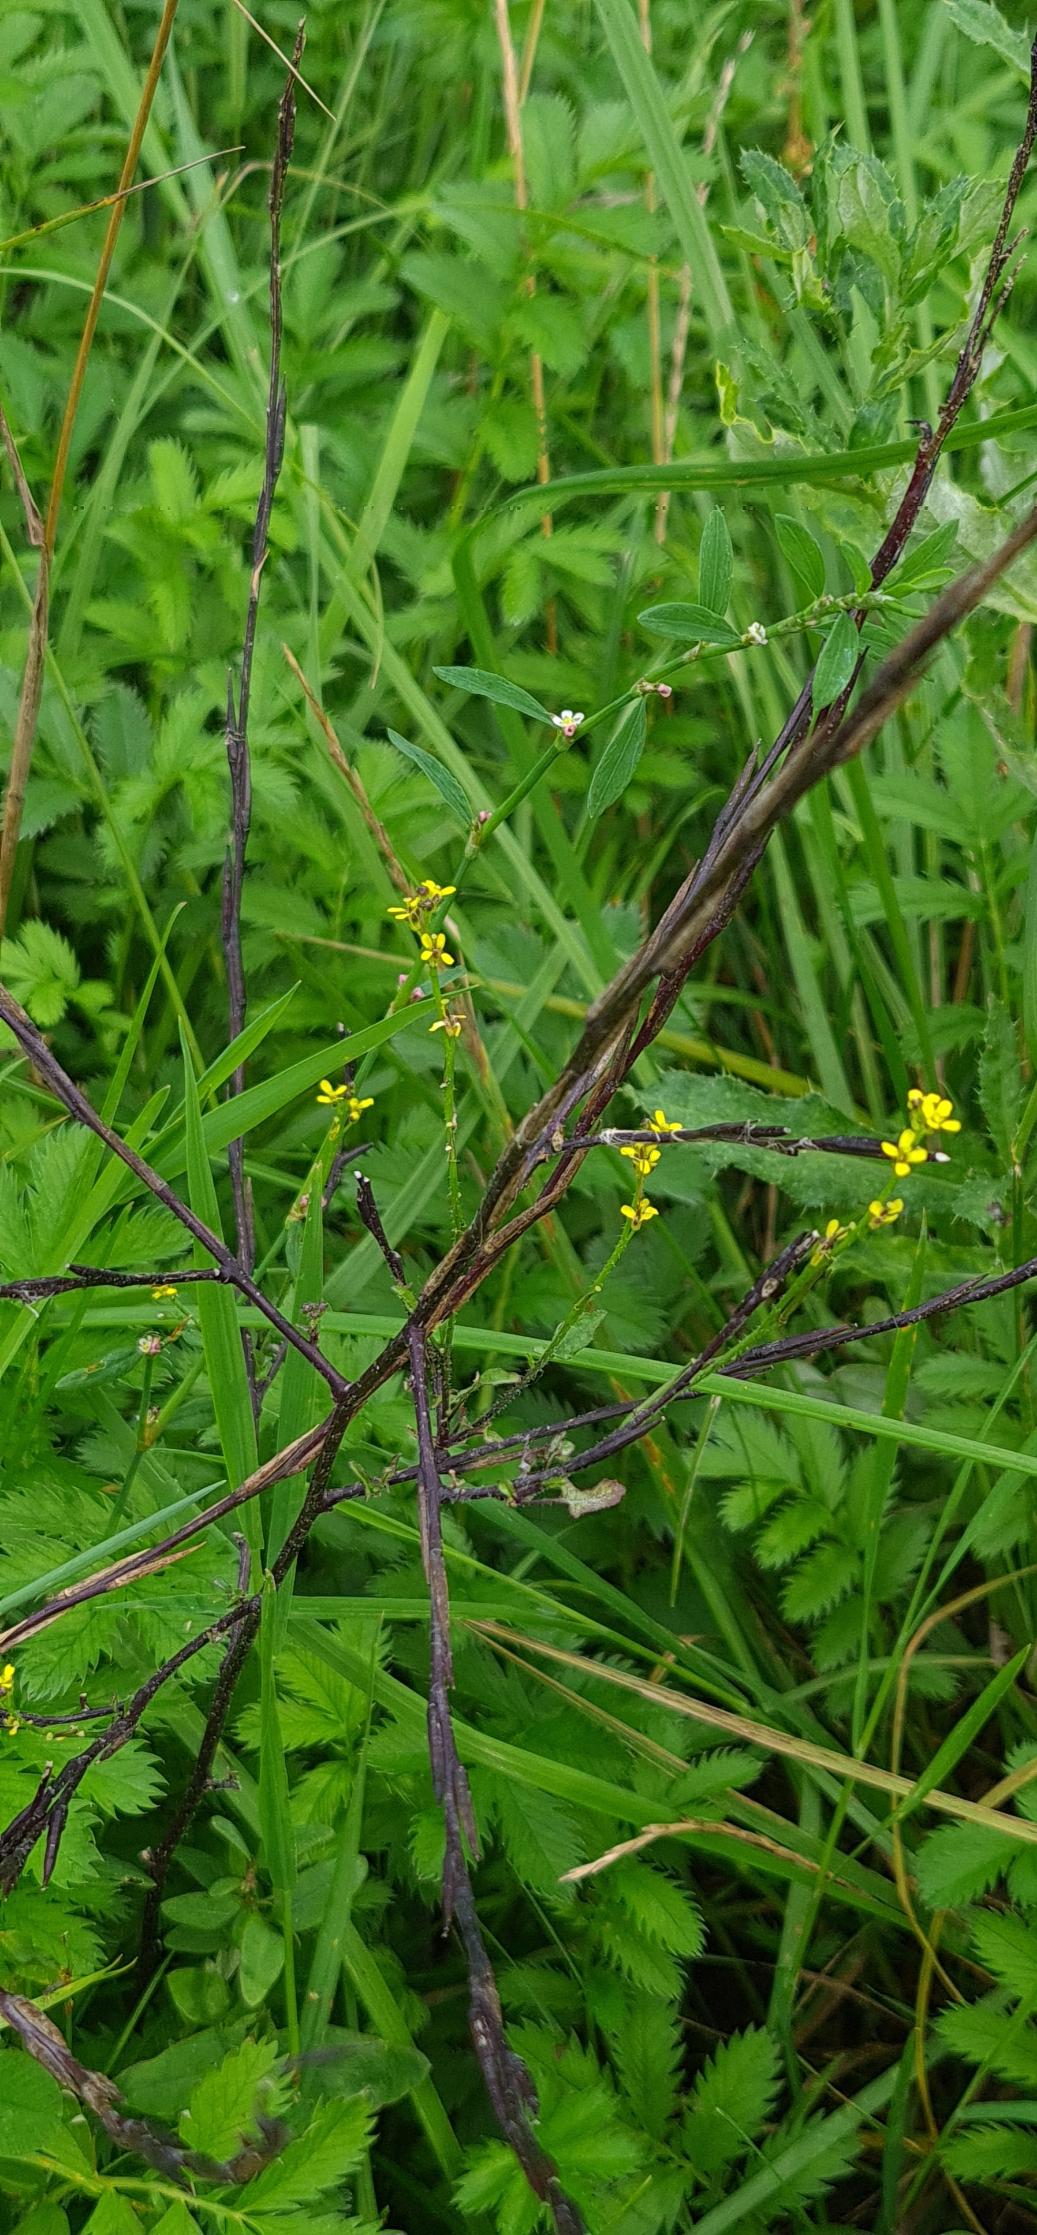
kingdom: Plantae
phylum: Tracheophyta
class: Magnoliopsida
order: Brassicales
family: Brassicaceae
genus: Sisymbrium
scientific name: Sisymbrium officinale
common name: Rank vejsennep
